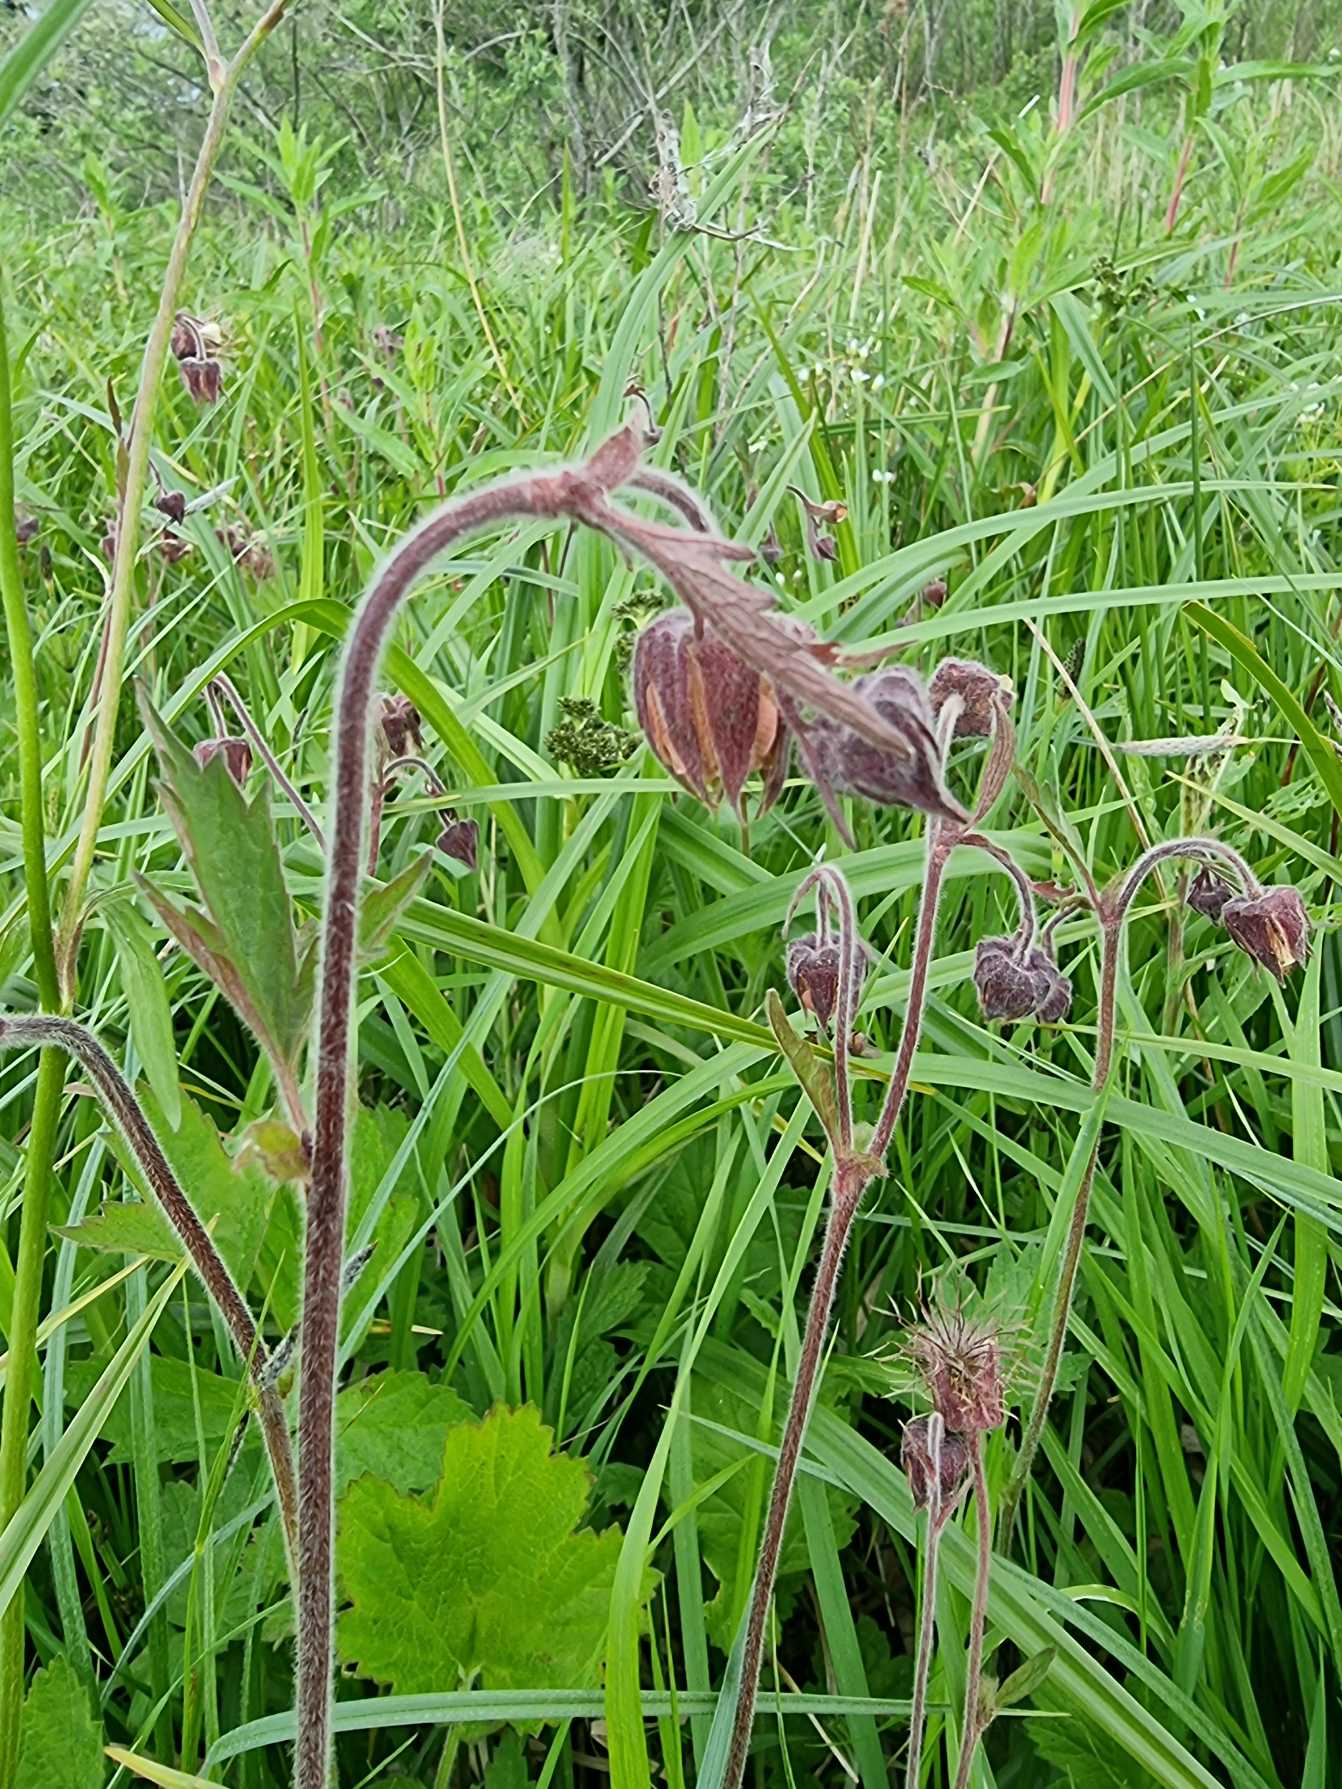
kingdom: Plantae
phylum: Tracheophyta
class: Magnoliopsida
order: Rosales
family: Rosaceae
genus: Geum
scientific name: Geum rivale
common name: Eng-nellikerod
